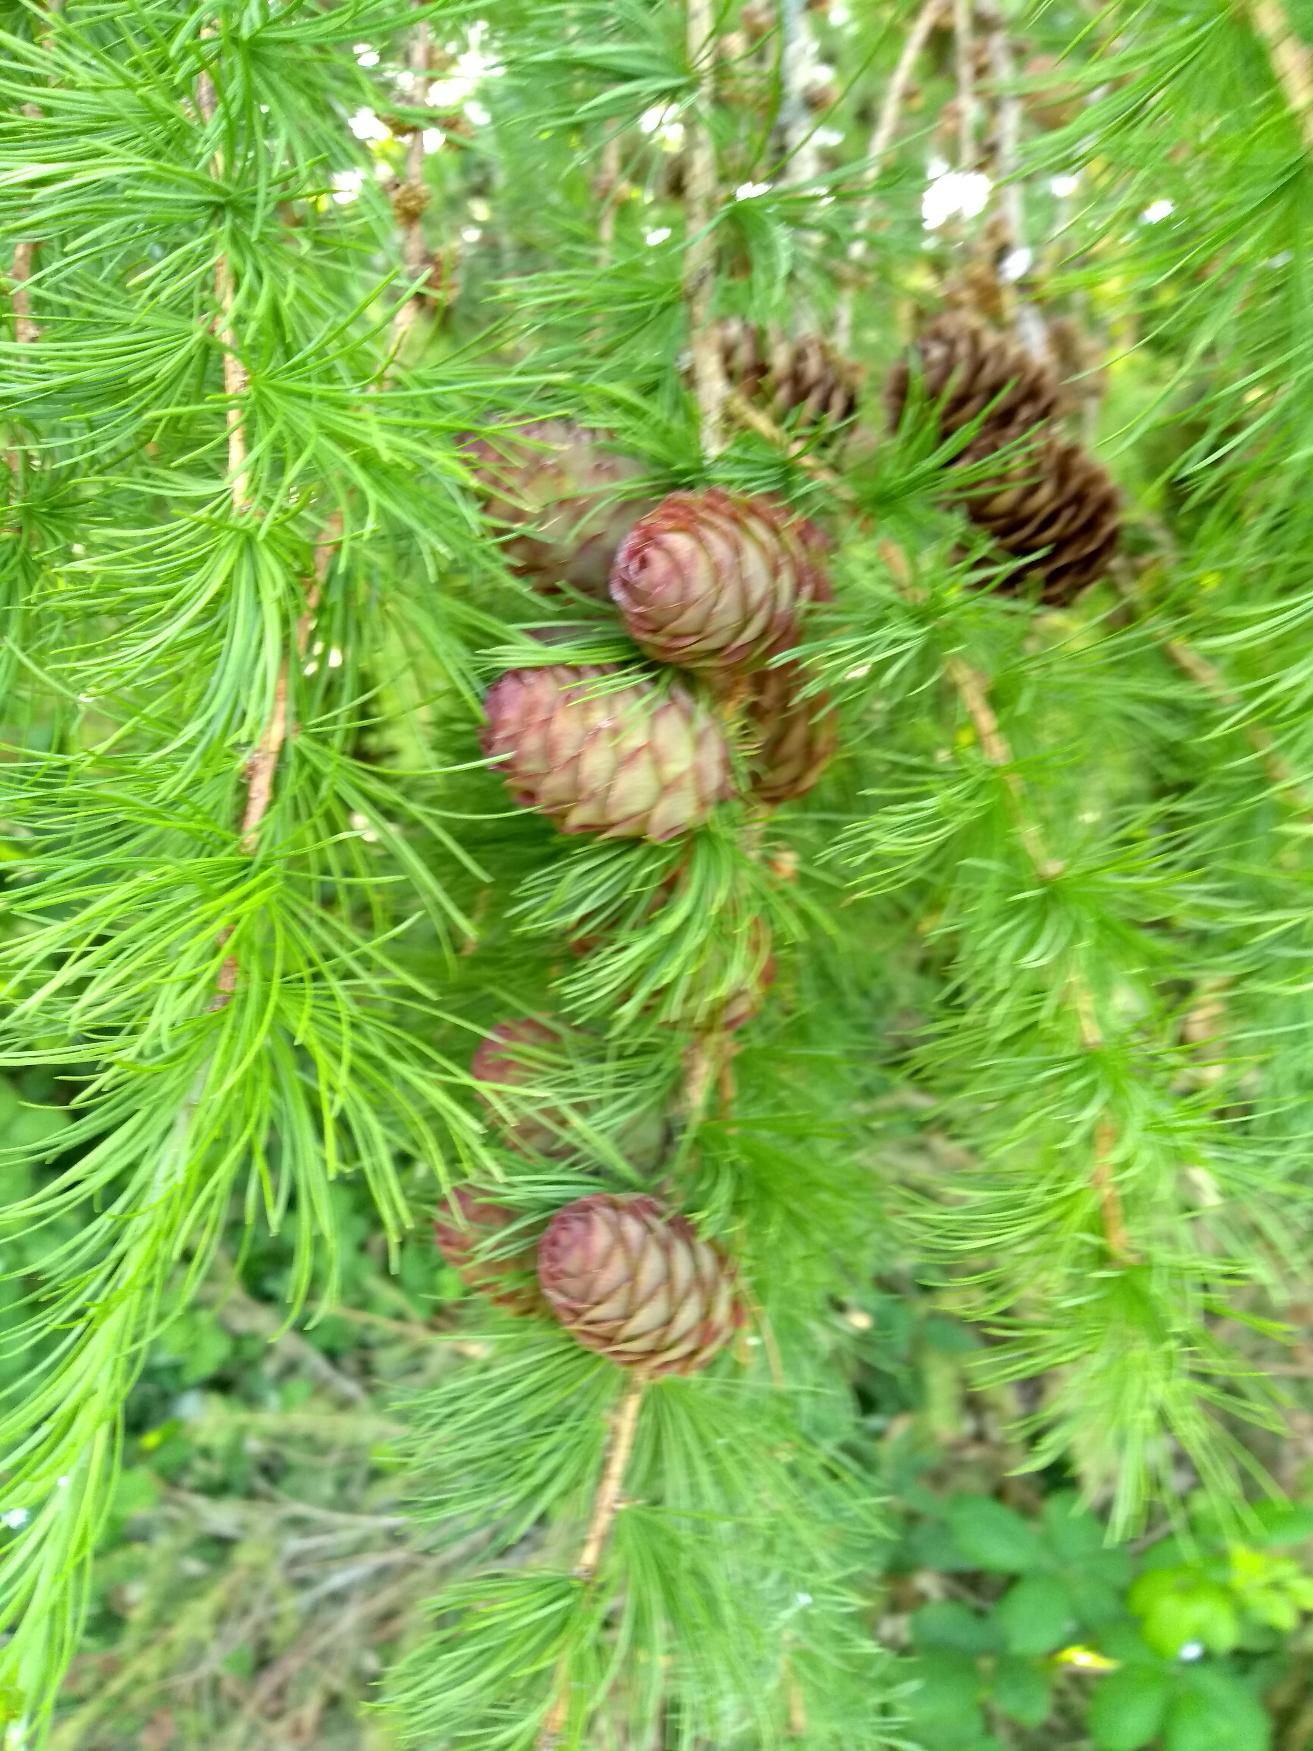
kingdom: Plantae
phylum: Tracheophyta
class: Pinopsida
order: Pinales
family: Pinaceae
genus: Larix
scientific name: Larix decidua
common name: Europæisk lærk
